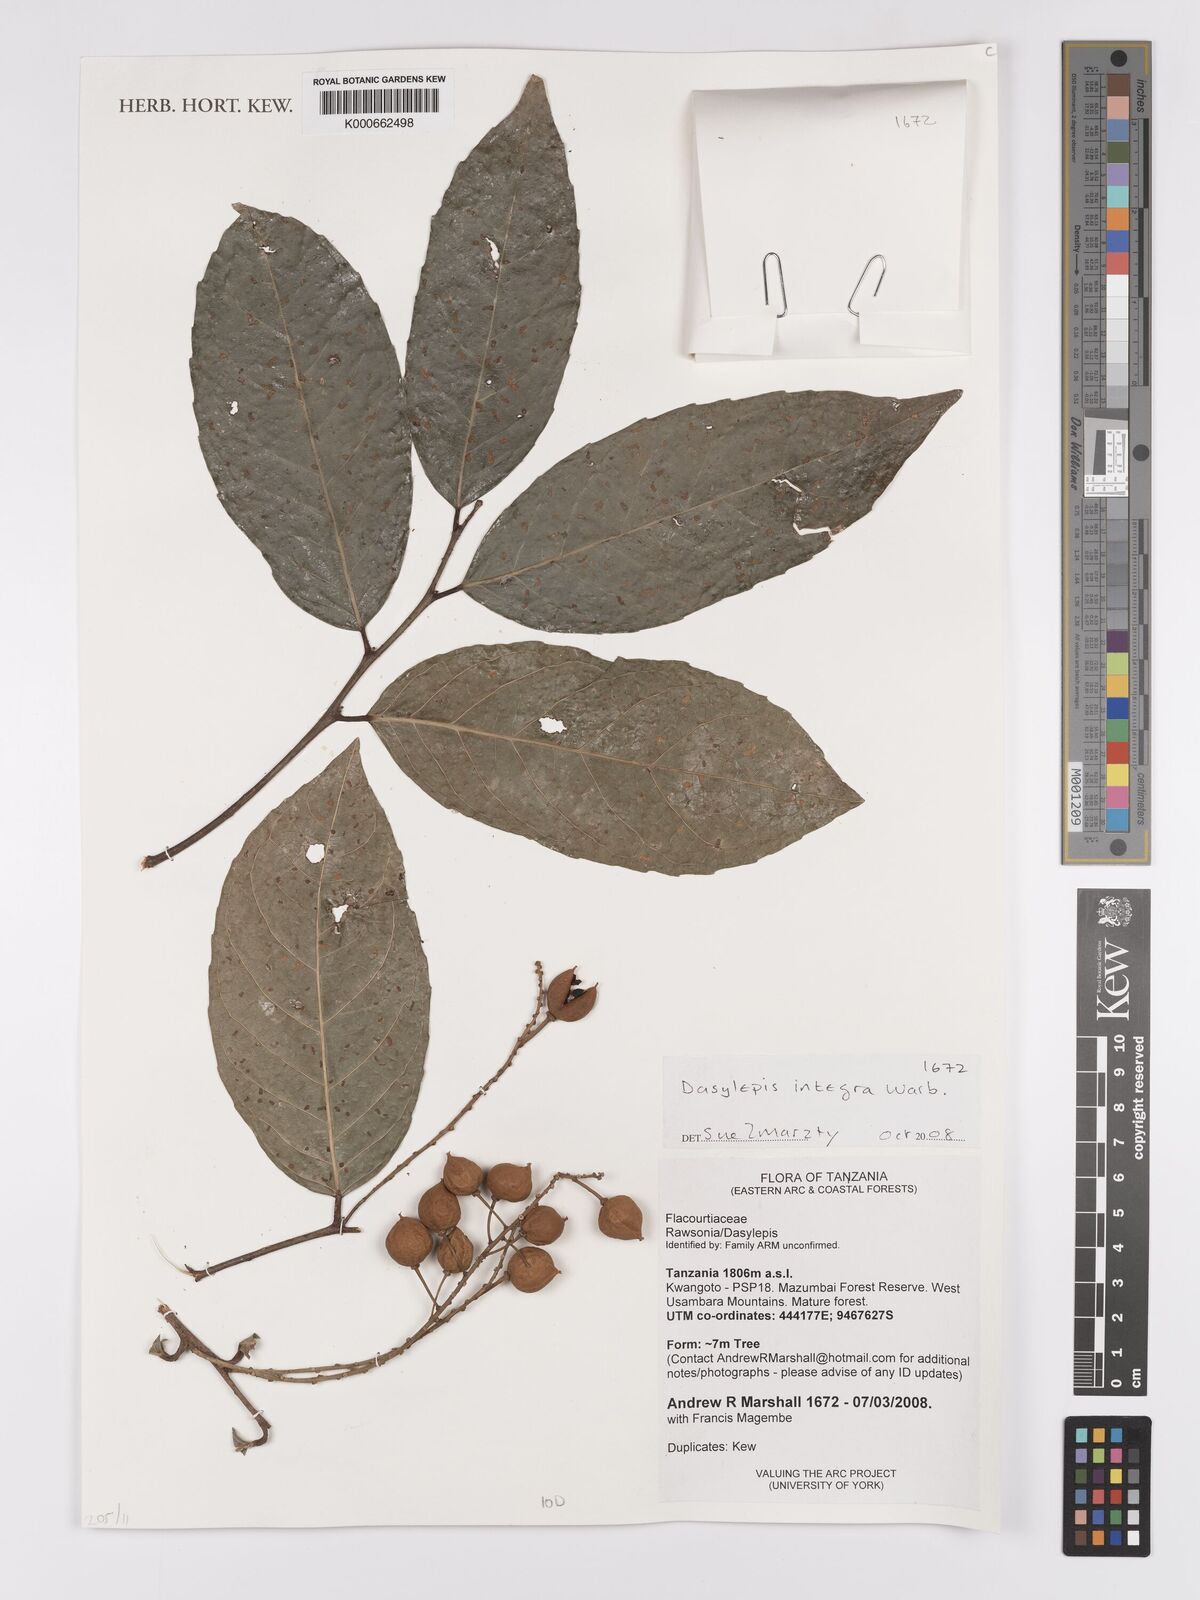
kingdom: Plantae
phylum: Tracheophyta
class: Magnoliopsida
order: Malpighiales
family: Achariaceae
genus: Dasylepis
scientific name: Dasylepis
